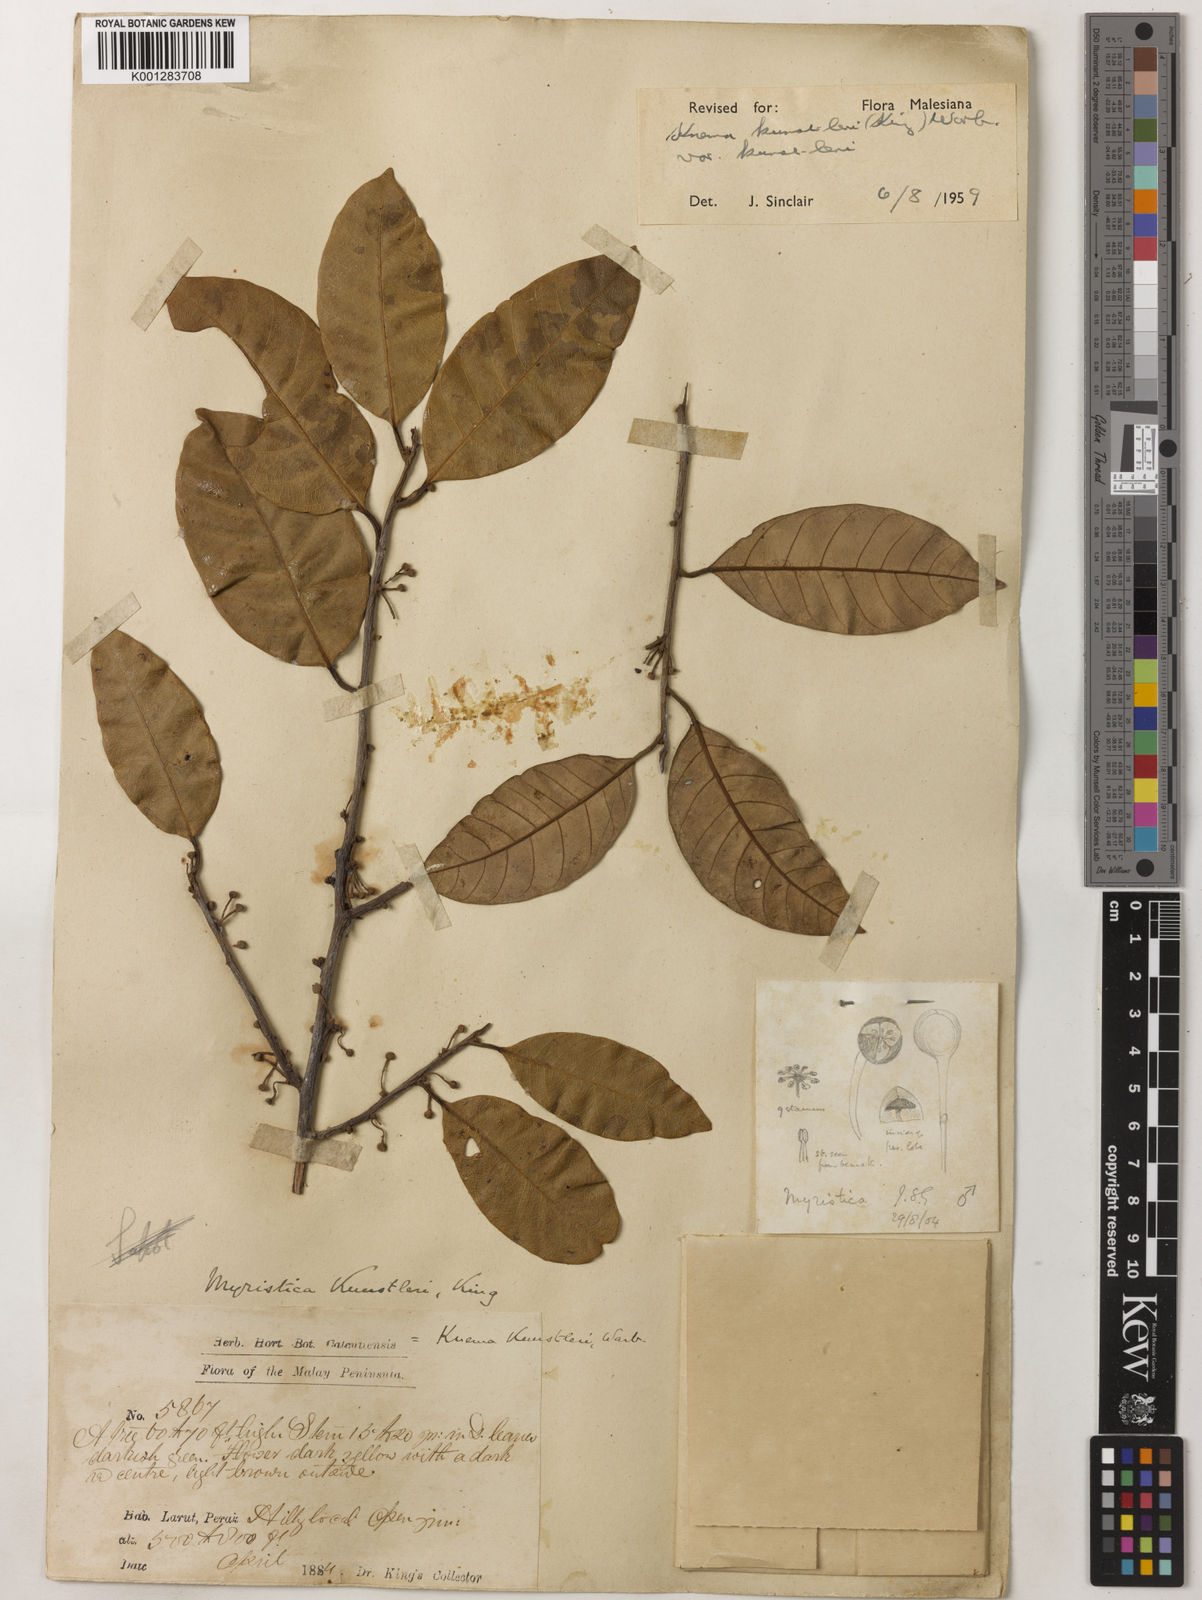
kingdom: Plantae
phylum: Tracheophyta
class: Magnoliopsida
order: Magnoliales
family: Myristicaceae
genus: Knema
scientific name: Knema kunstleri
